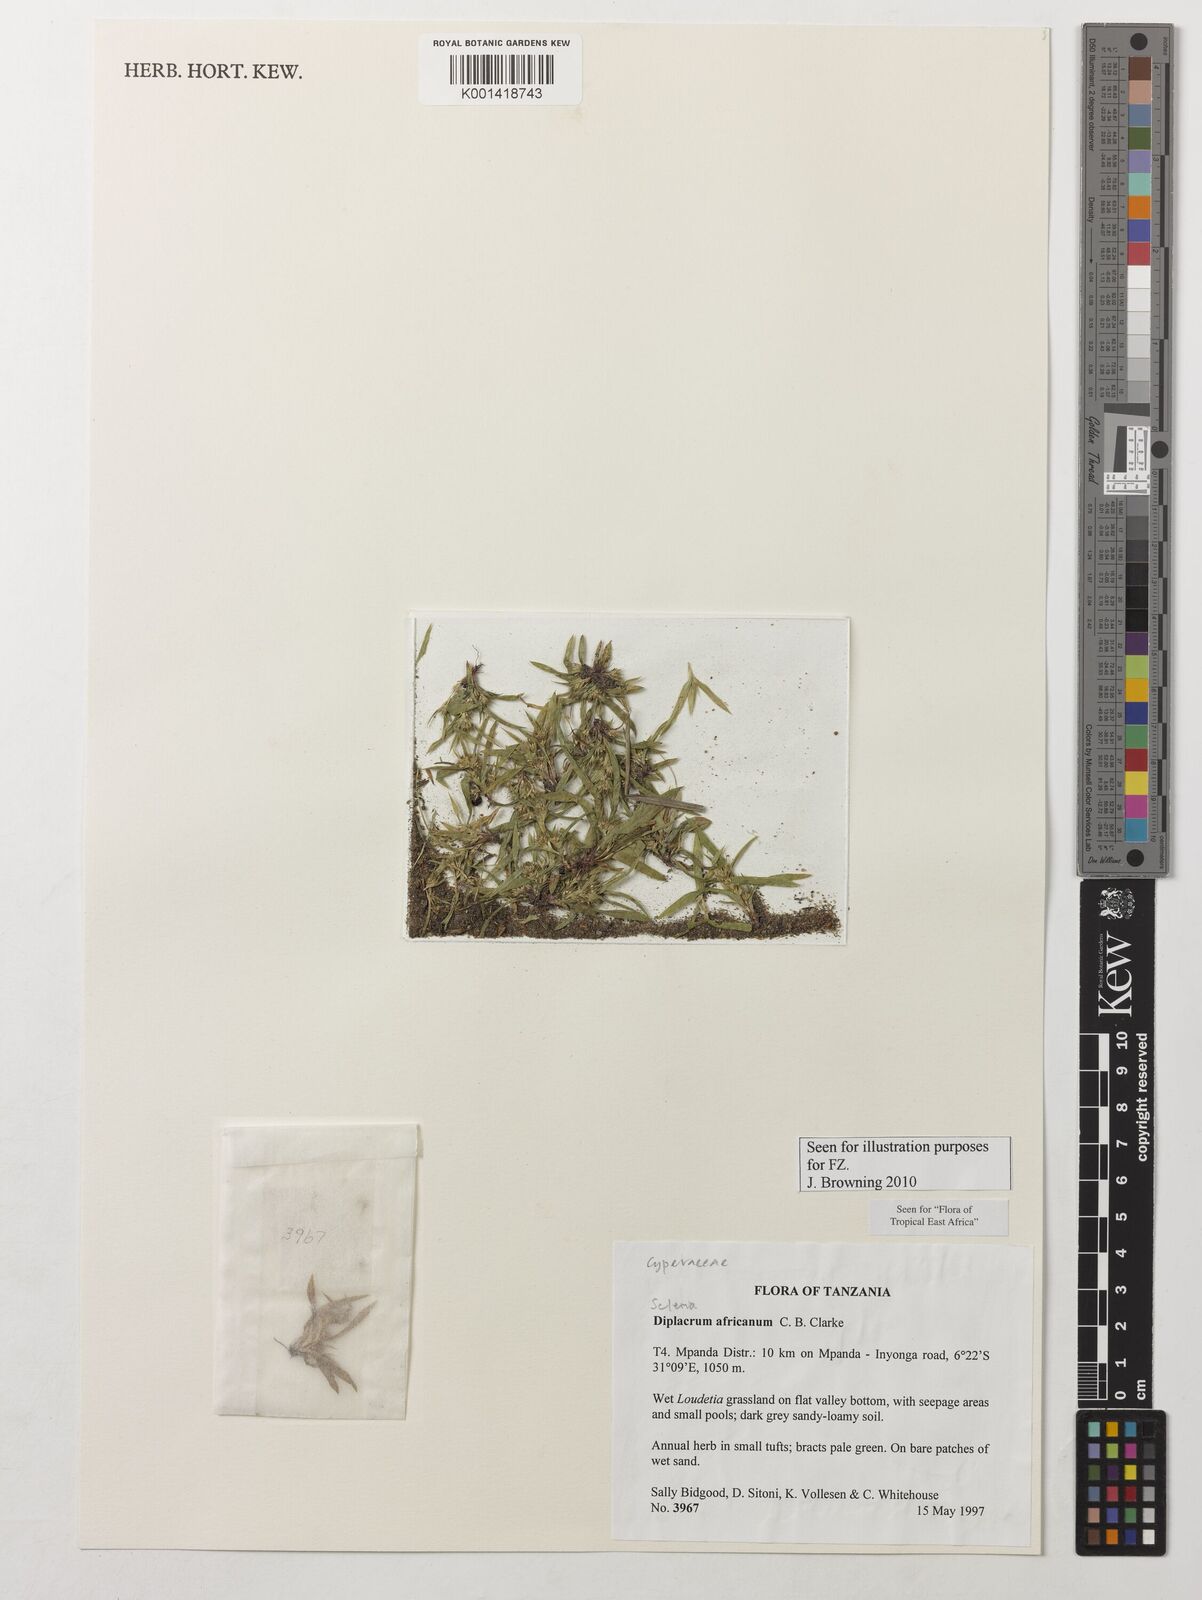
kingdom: Plantae
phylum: Tracheophyta
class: Liliopsida
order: Poales
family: Cyperaceae
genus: Diplacrum
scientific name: Diplacrum africanum
